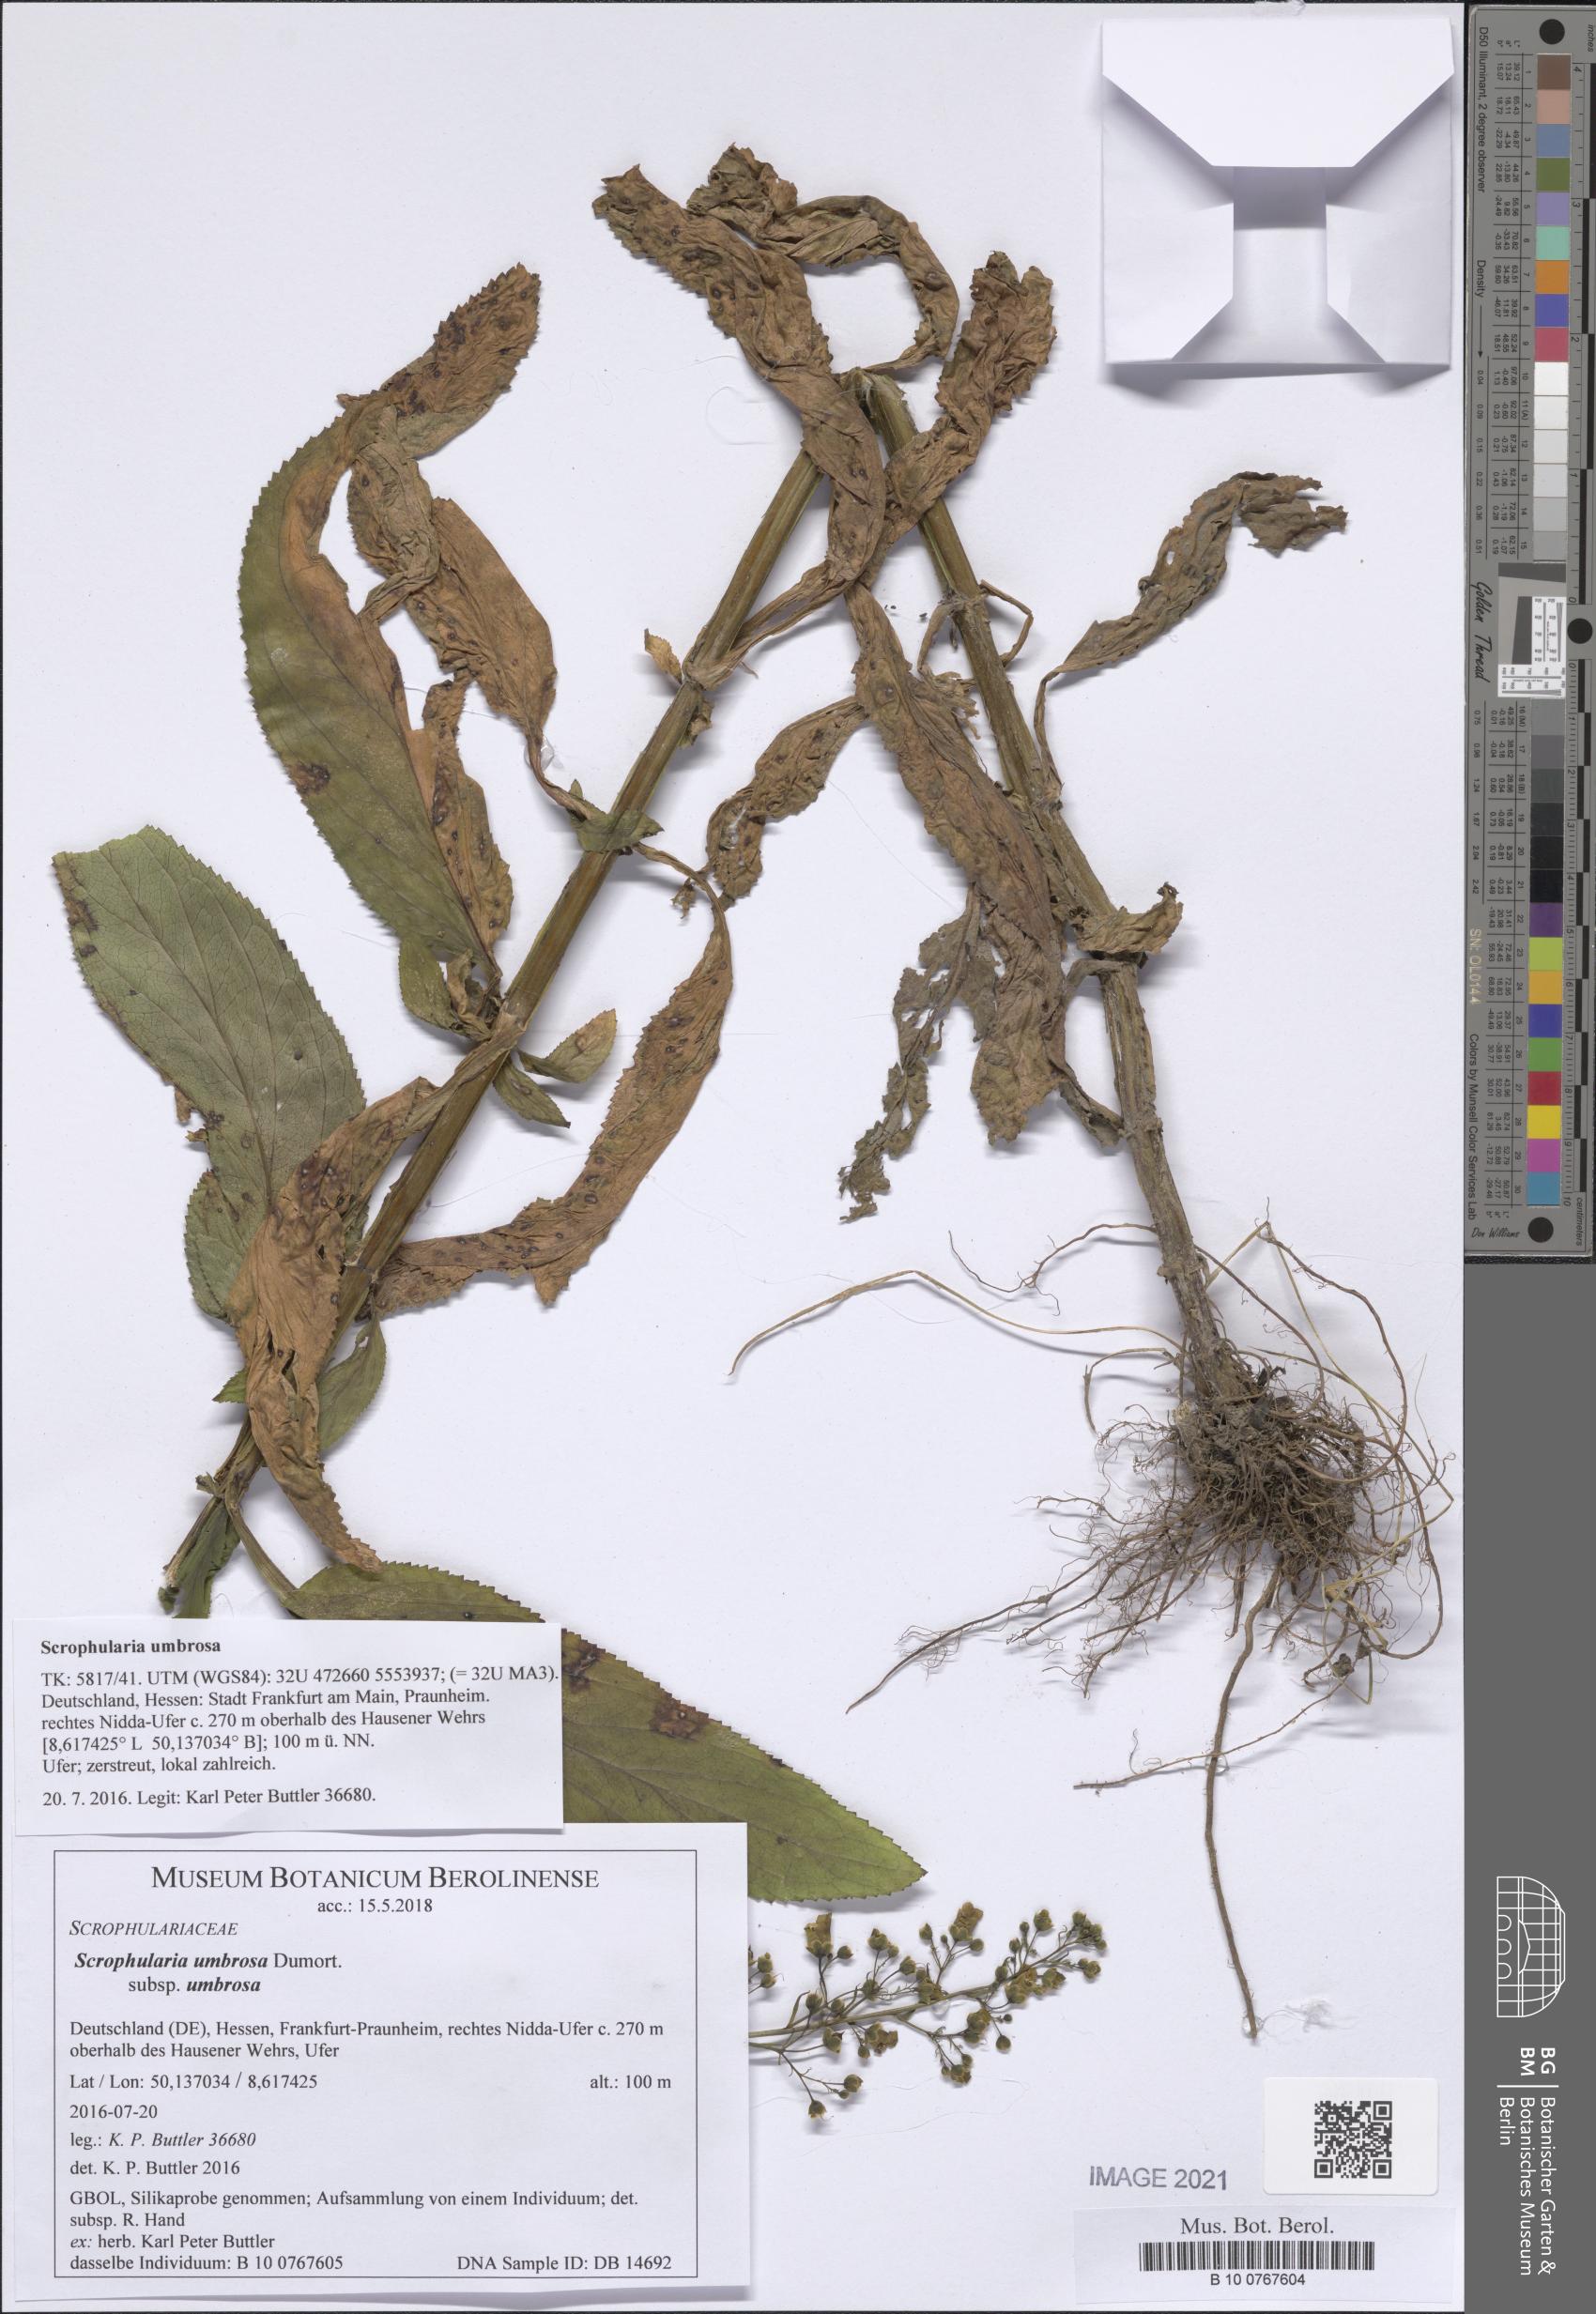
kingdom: Plantae
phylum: Tracheophyta
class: Magnoliopsida
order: Lamiales
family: Scrophulariaceae
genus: Scrophularia
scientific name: Scrophularia umbrosa
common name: Green figwort
